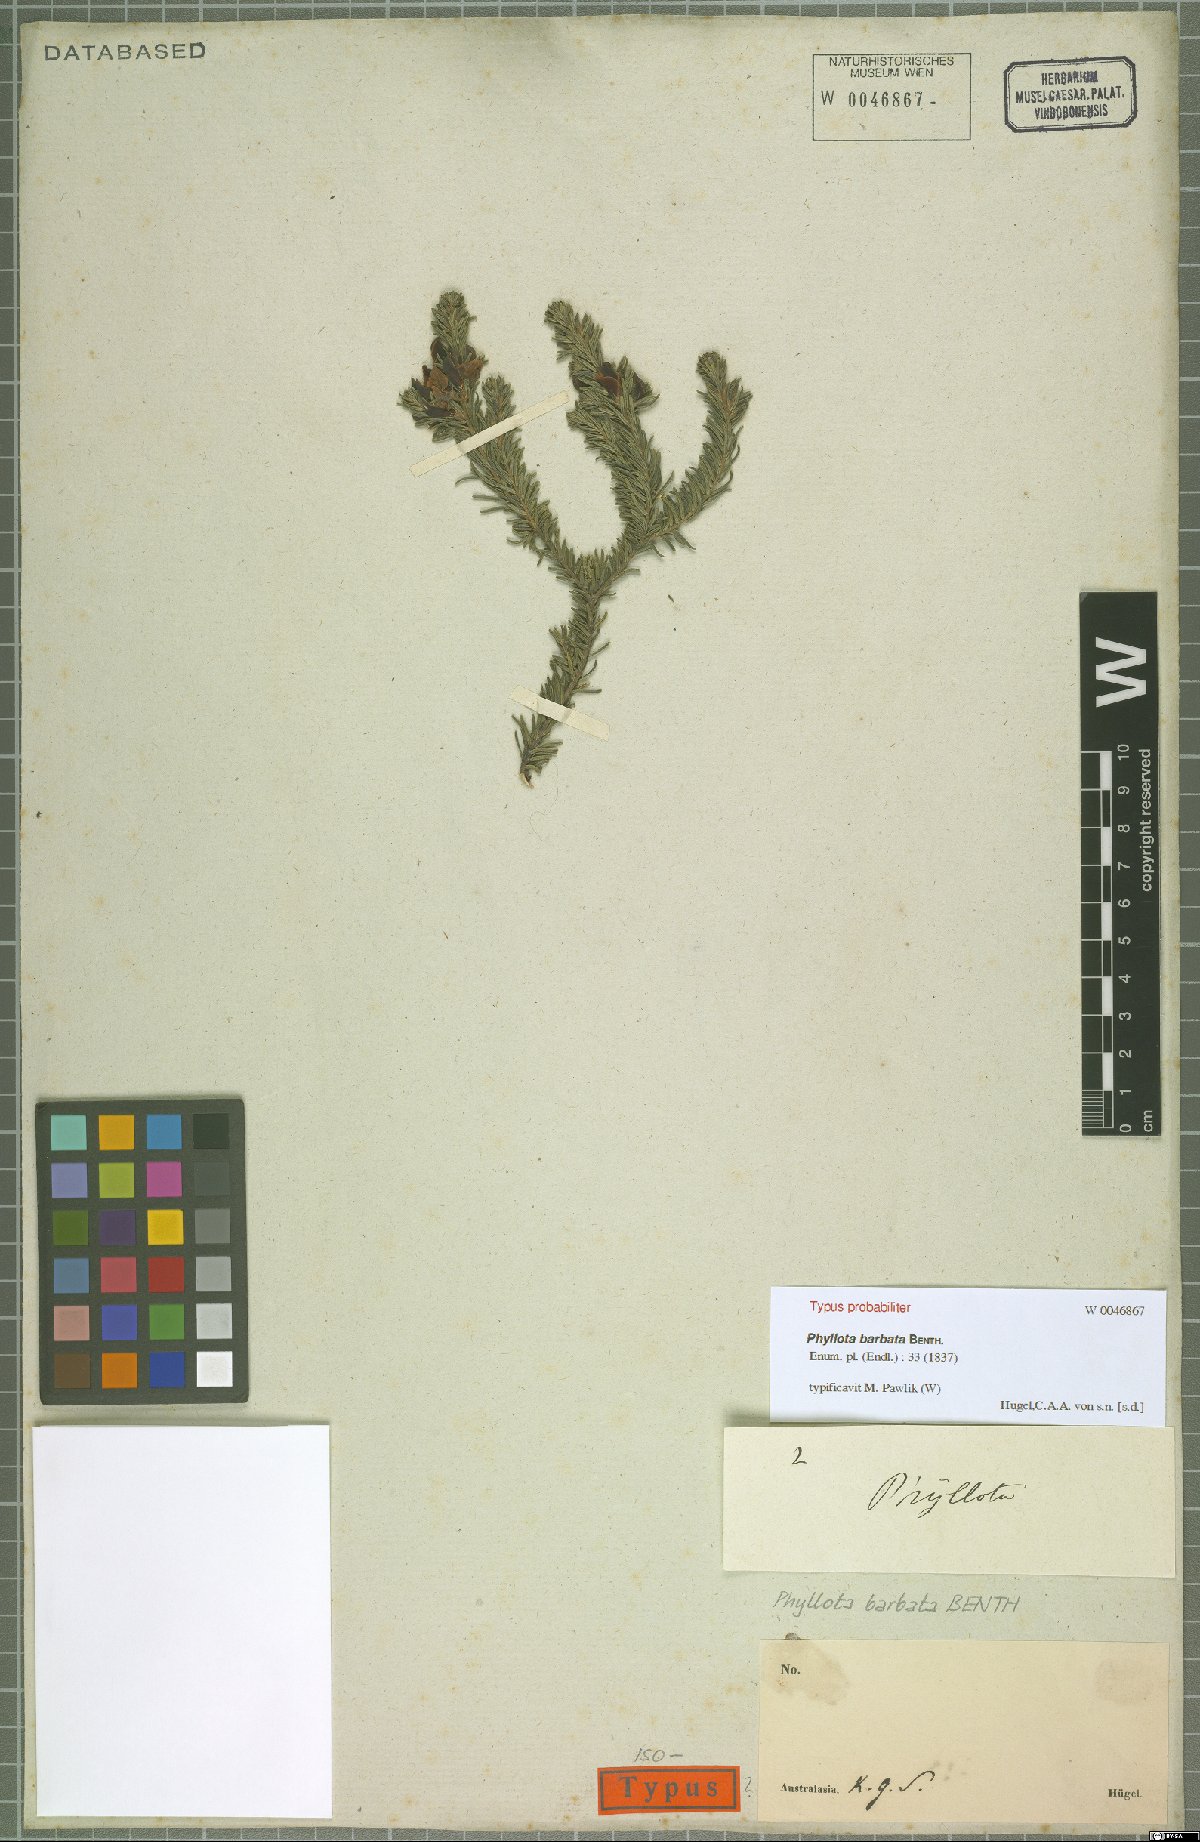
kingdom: Plantae
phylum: Tracheophyta
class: Magnoliopsida
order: Fabales
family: Fabaceae
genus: Phyllota
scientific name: Phyllota barbata
